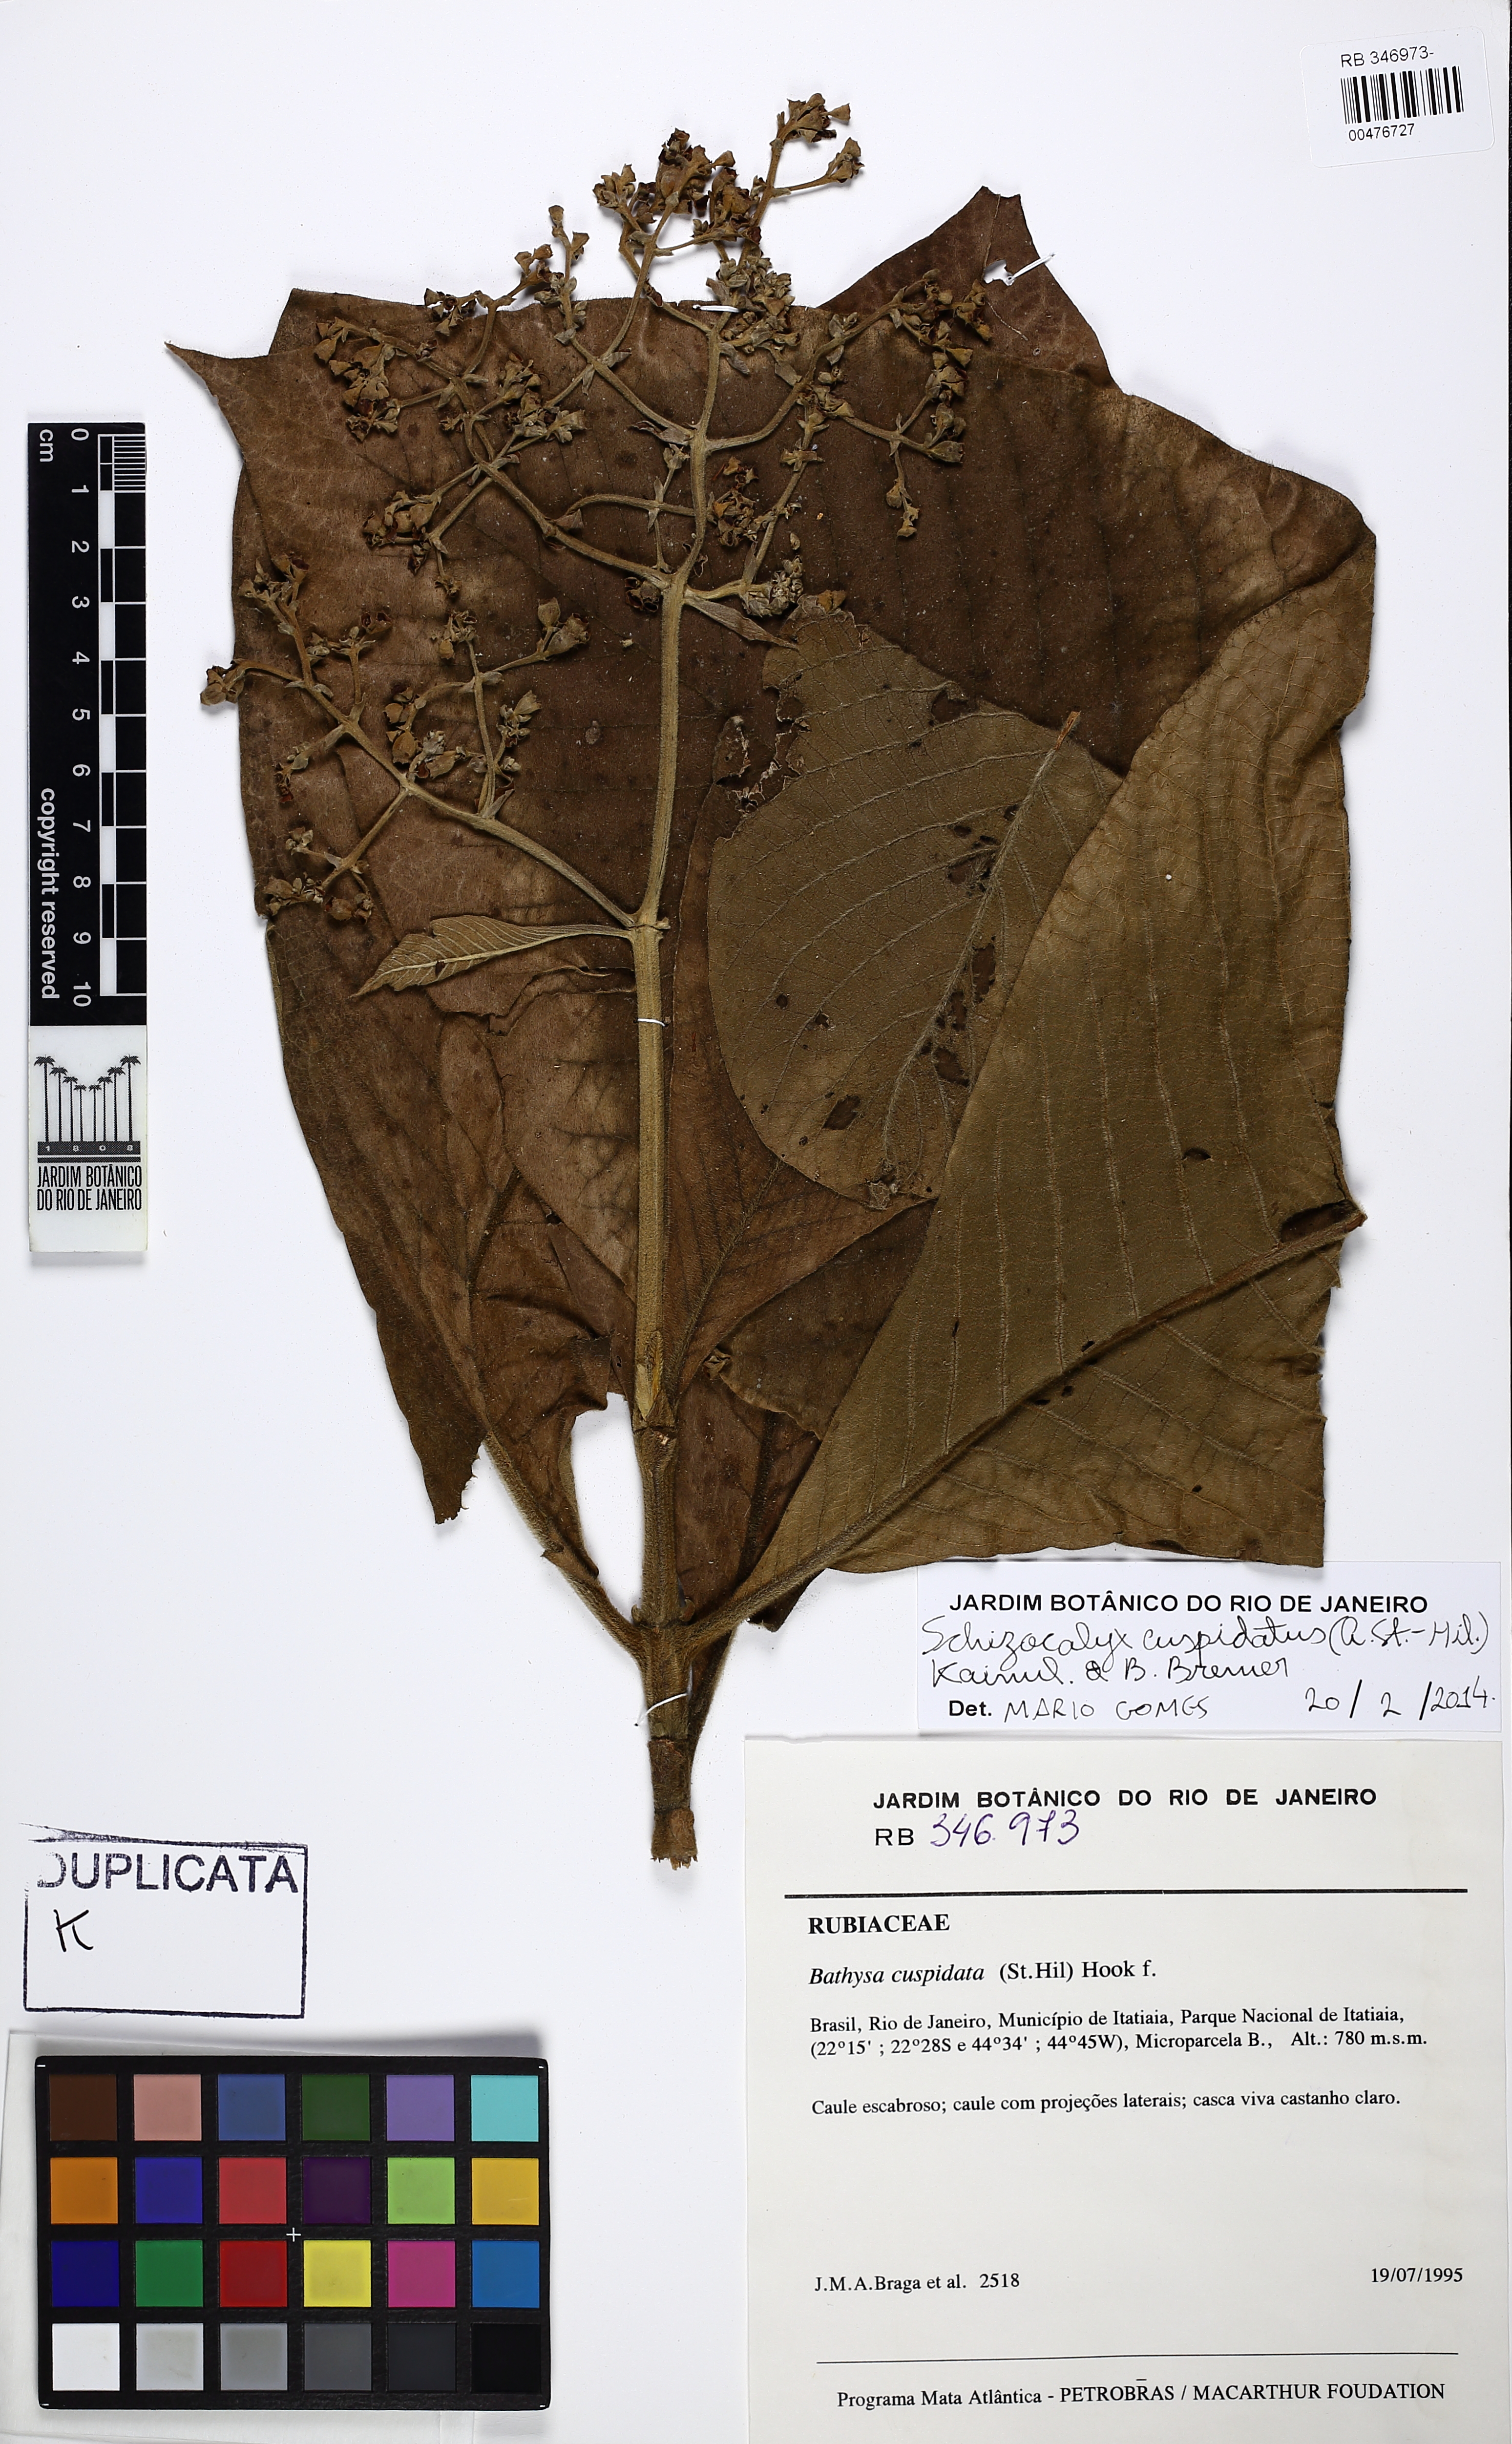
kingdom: Plantae
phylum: Tracheophyta
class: Magnoliopsida
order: Gentianales
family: Rubiaceae
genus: Schizocalyx
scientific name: Schizocalyx cuspidatus
